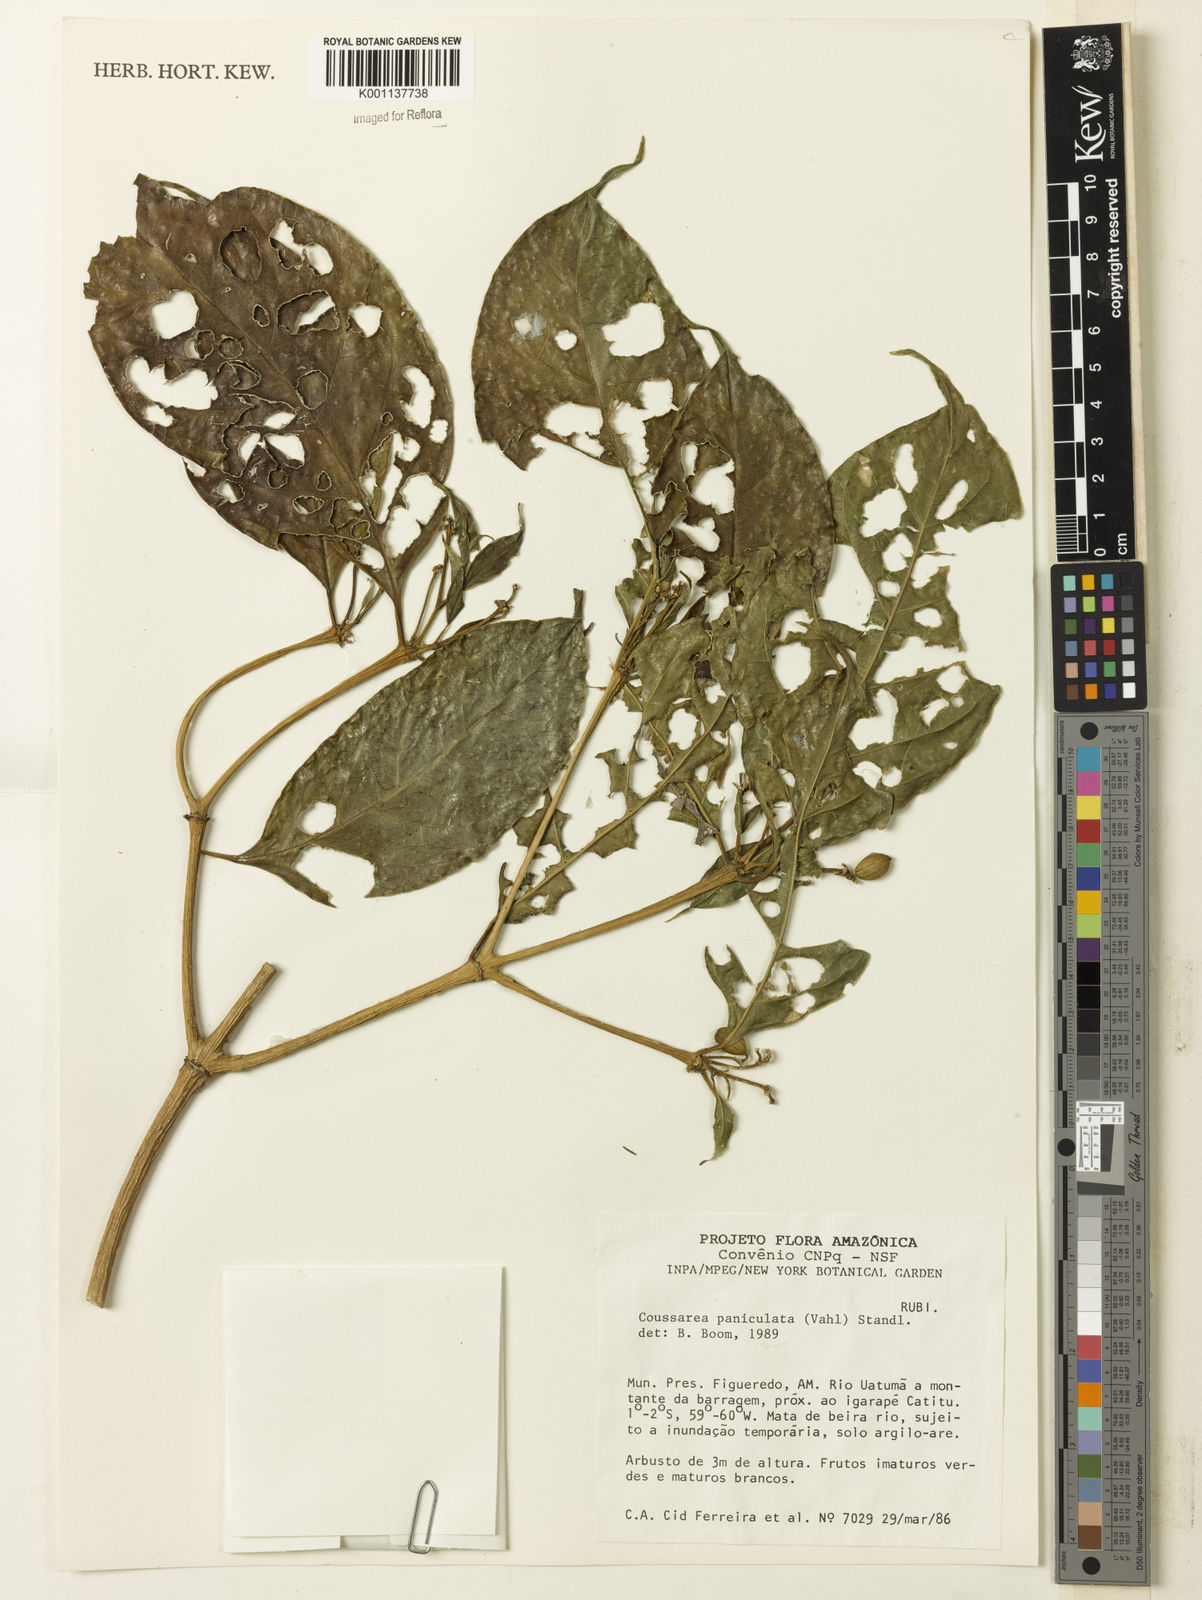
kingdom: Plantae
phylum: Tracheophyta
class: Magnoliopsida
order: Gentianales
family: Rubiaceae
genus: Coussarea
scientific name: Coussarea paniculata
